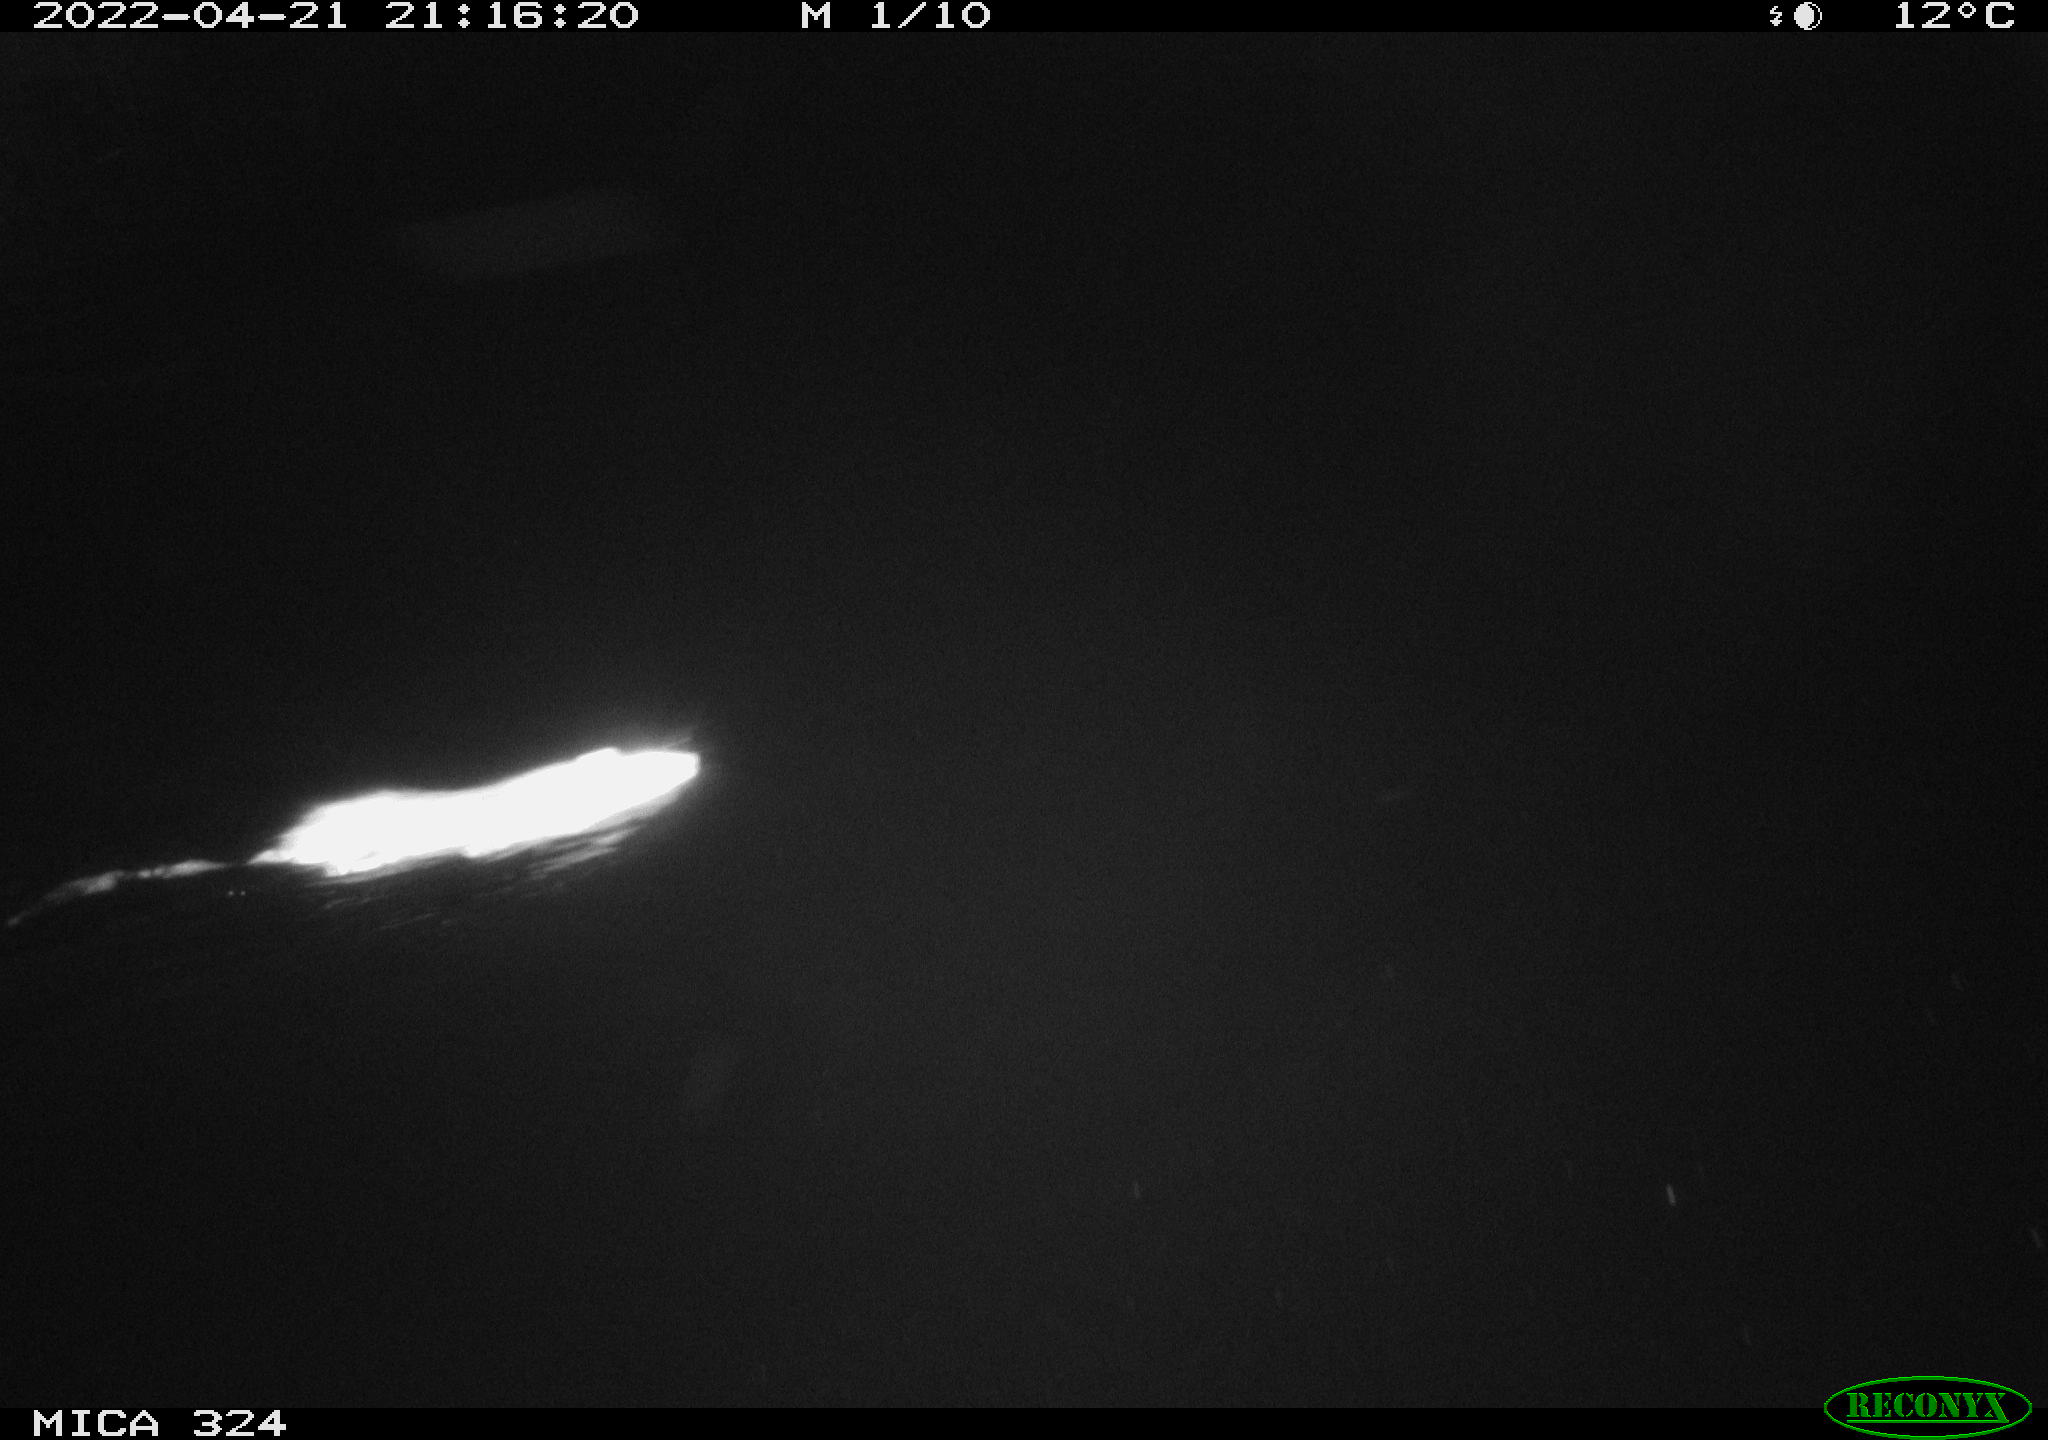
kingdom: Animalia
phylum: Chordata
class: Mammalia
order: Rodentia
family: Muridae
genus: Rattus
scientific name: Rattus norvegicus
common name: Brown rat
